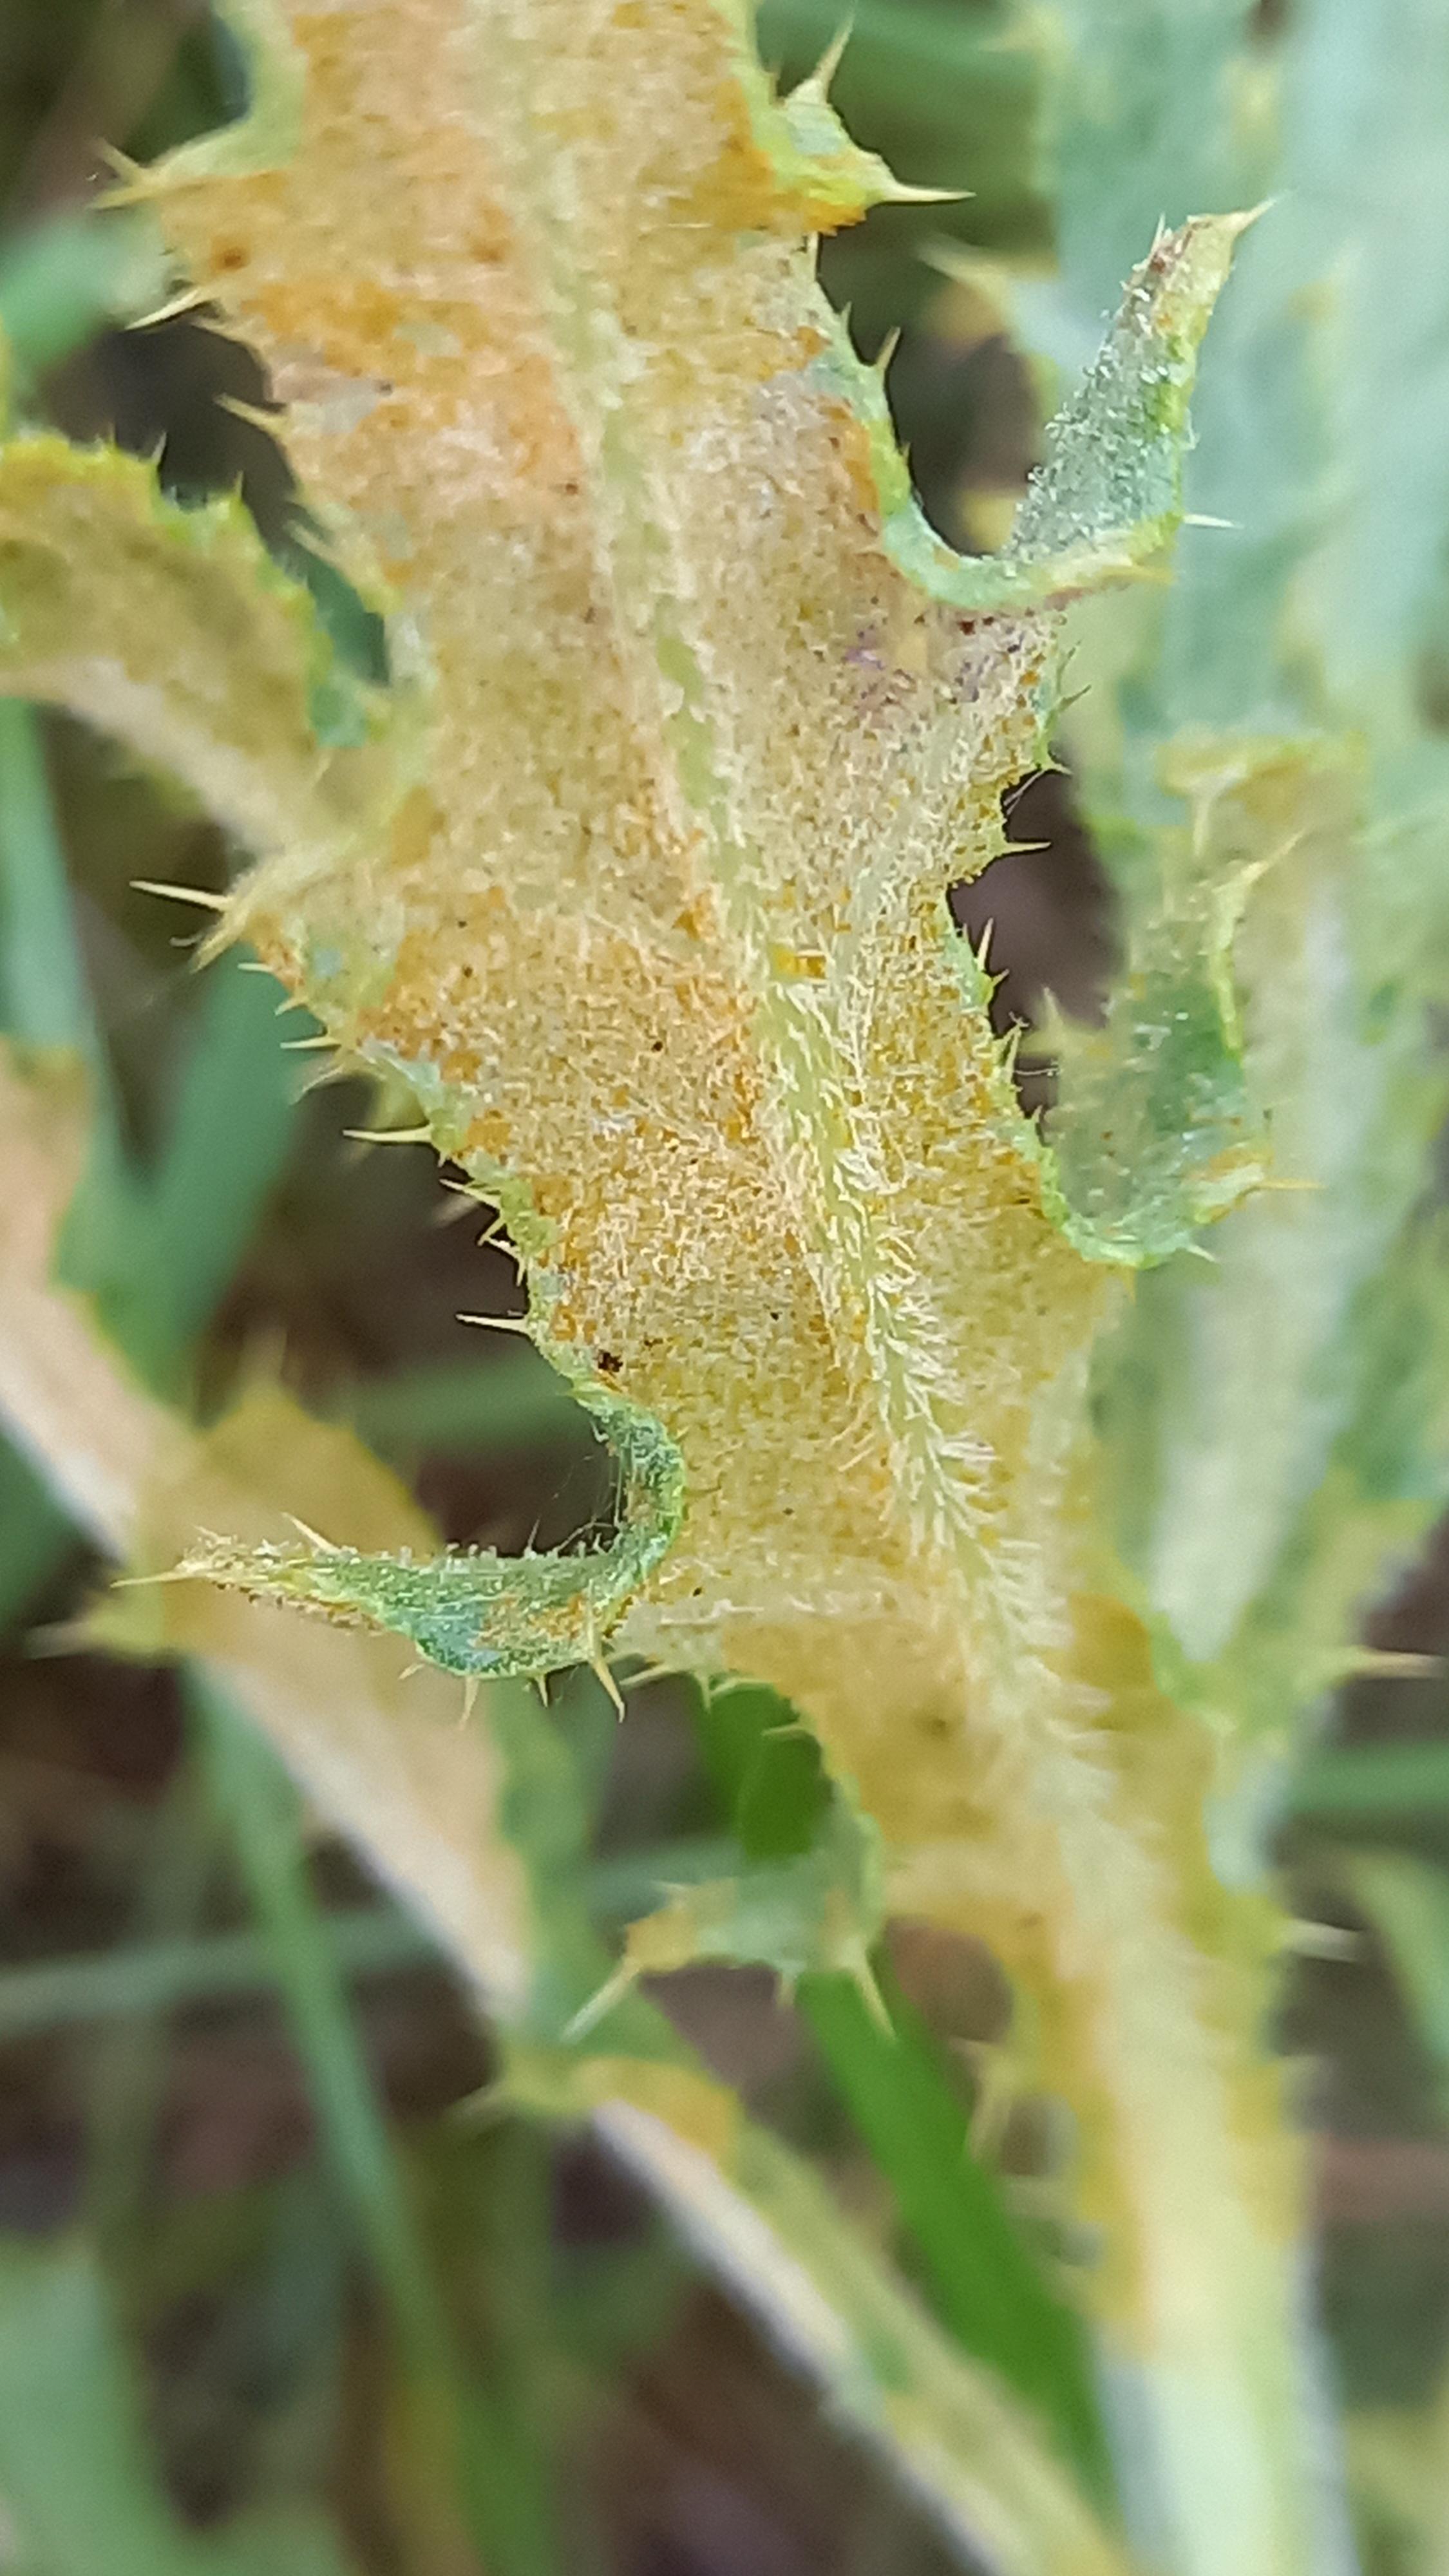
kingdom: Fungi
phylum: Basidiomycota
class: Pucciniomycetes
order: Pucciniales
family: Pucciniaceae
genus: Puccinia
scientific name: Puccinia suaveolens
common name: tidsel-tvecellerust
